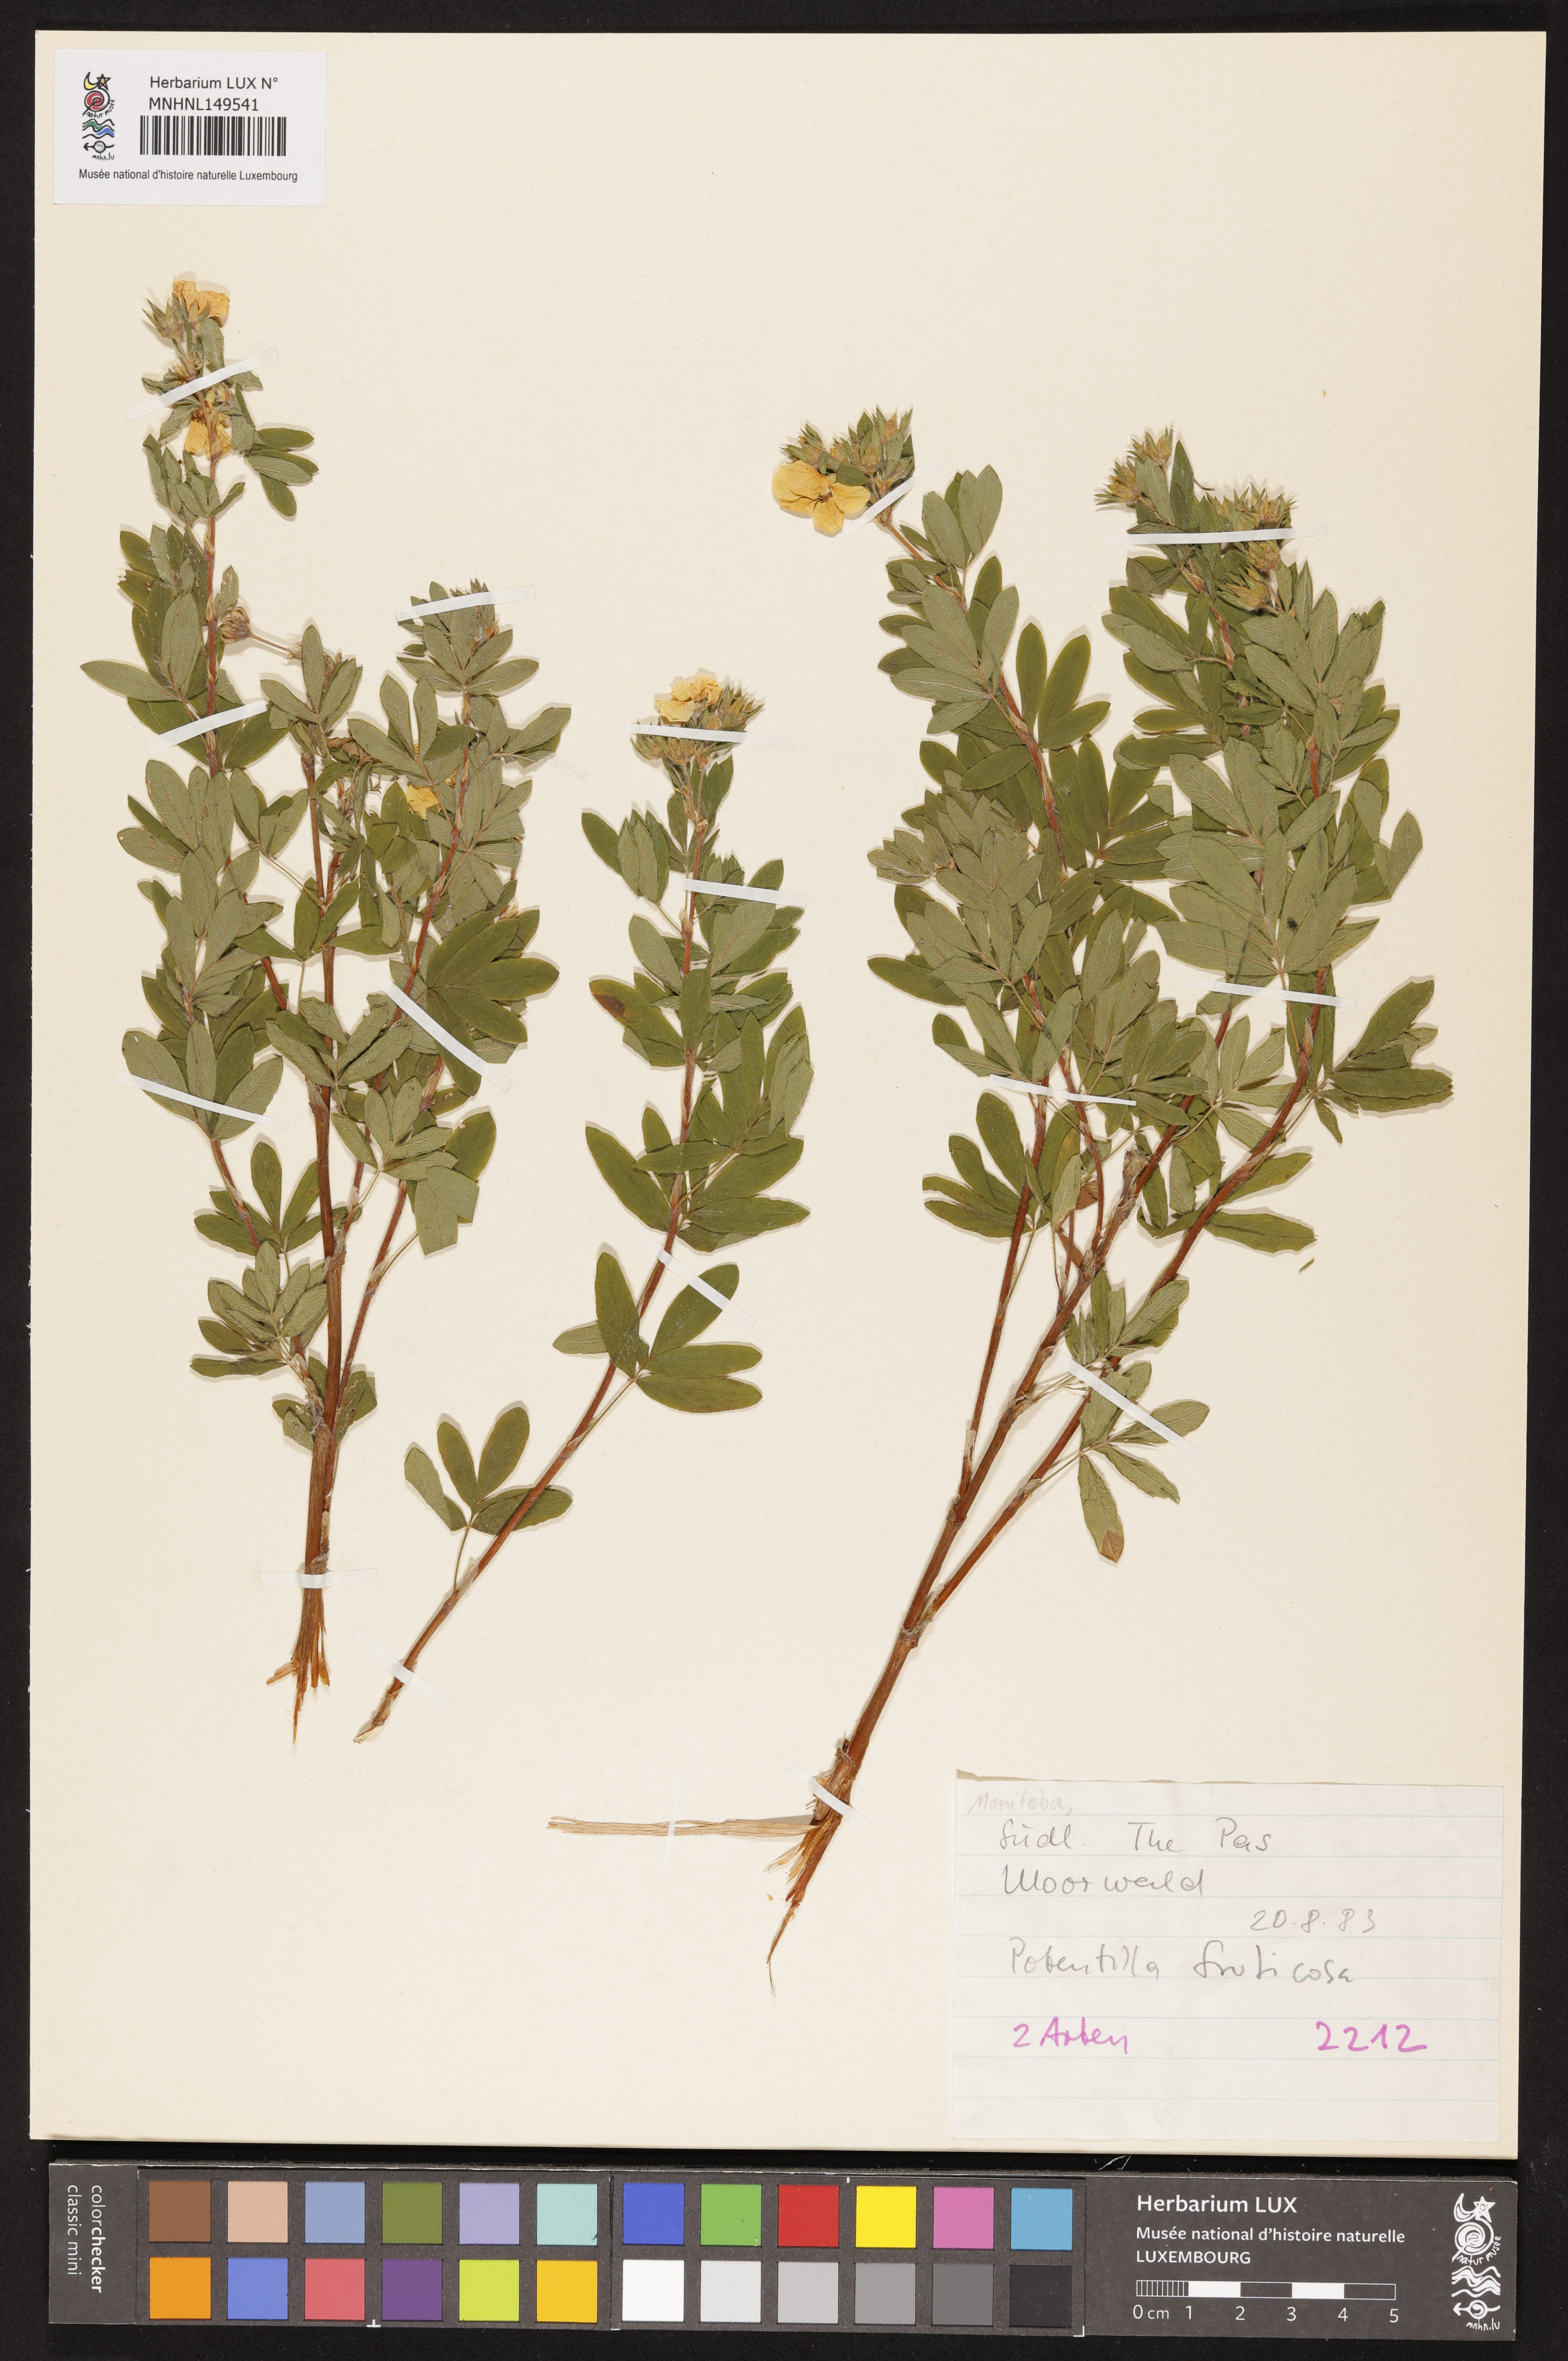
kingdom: Plantae
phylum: Tracheophyta
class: Magnoliopsida
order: Rosales
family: Rosaceae
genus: Potentilla
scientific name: Potentilla fructicosa
